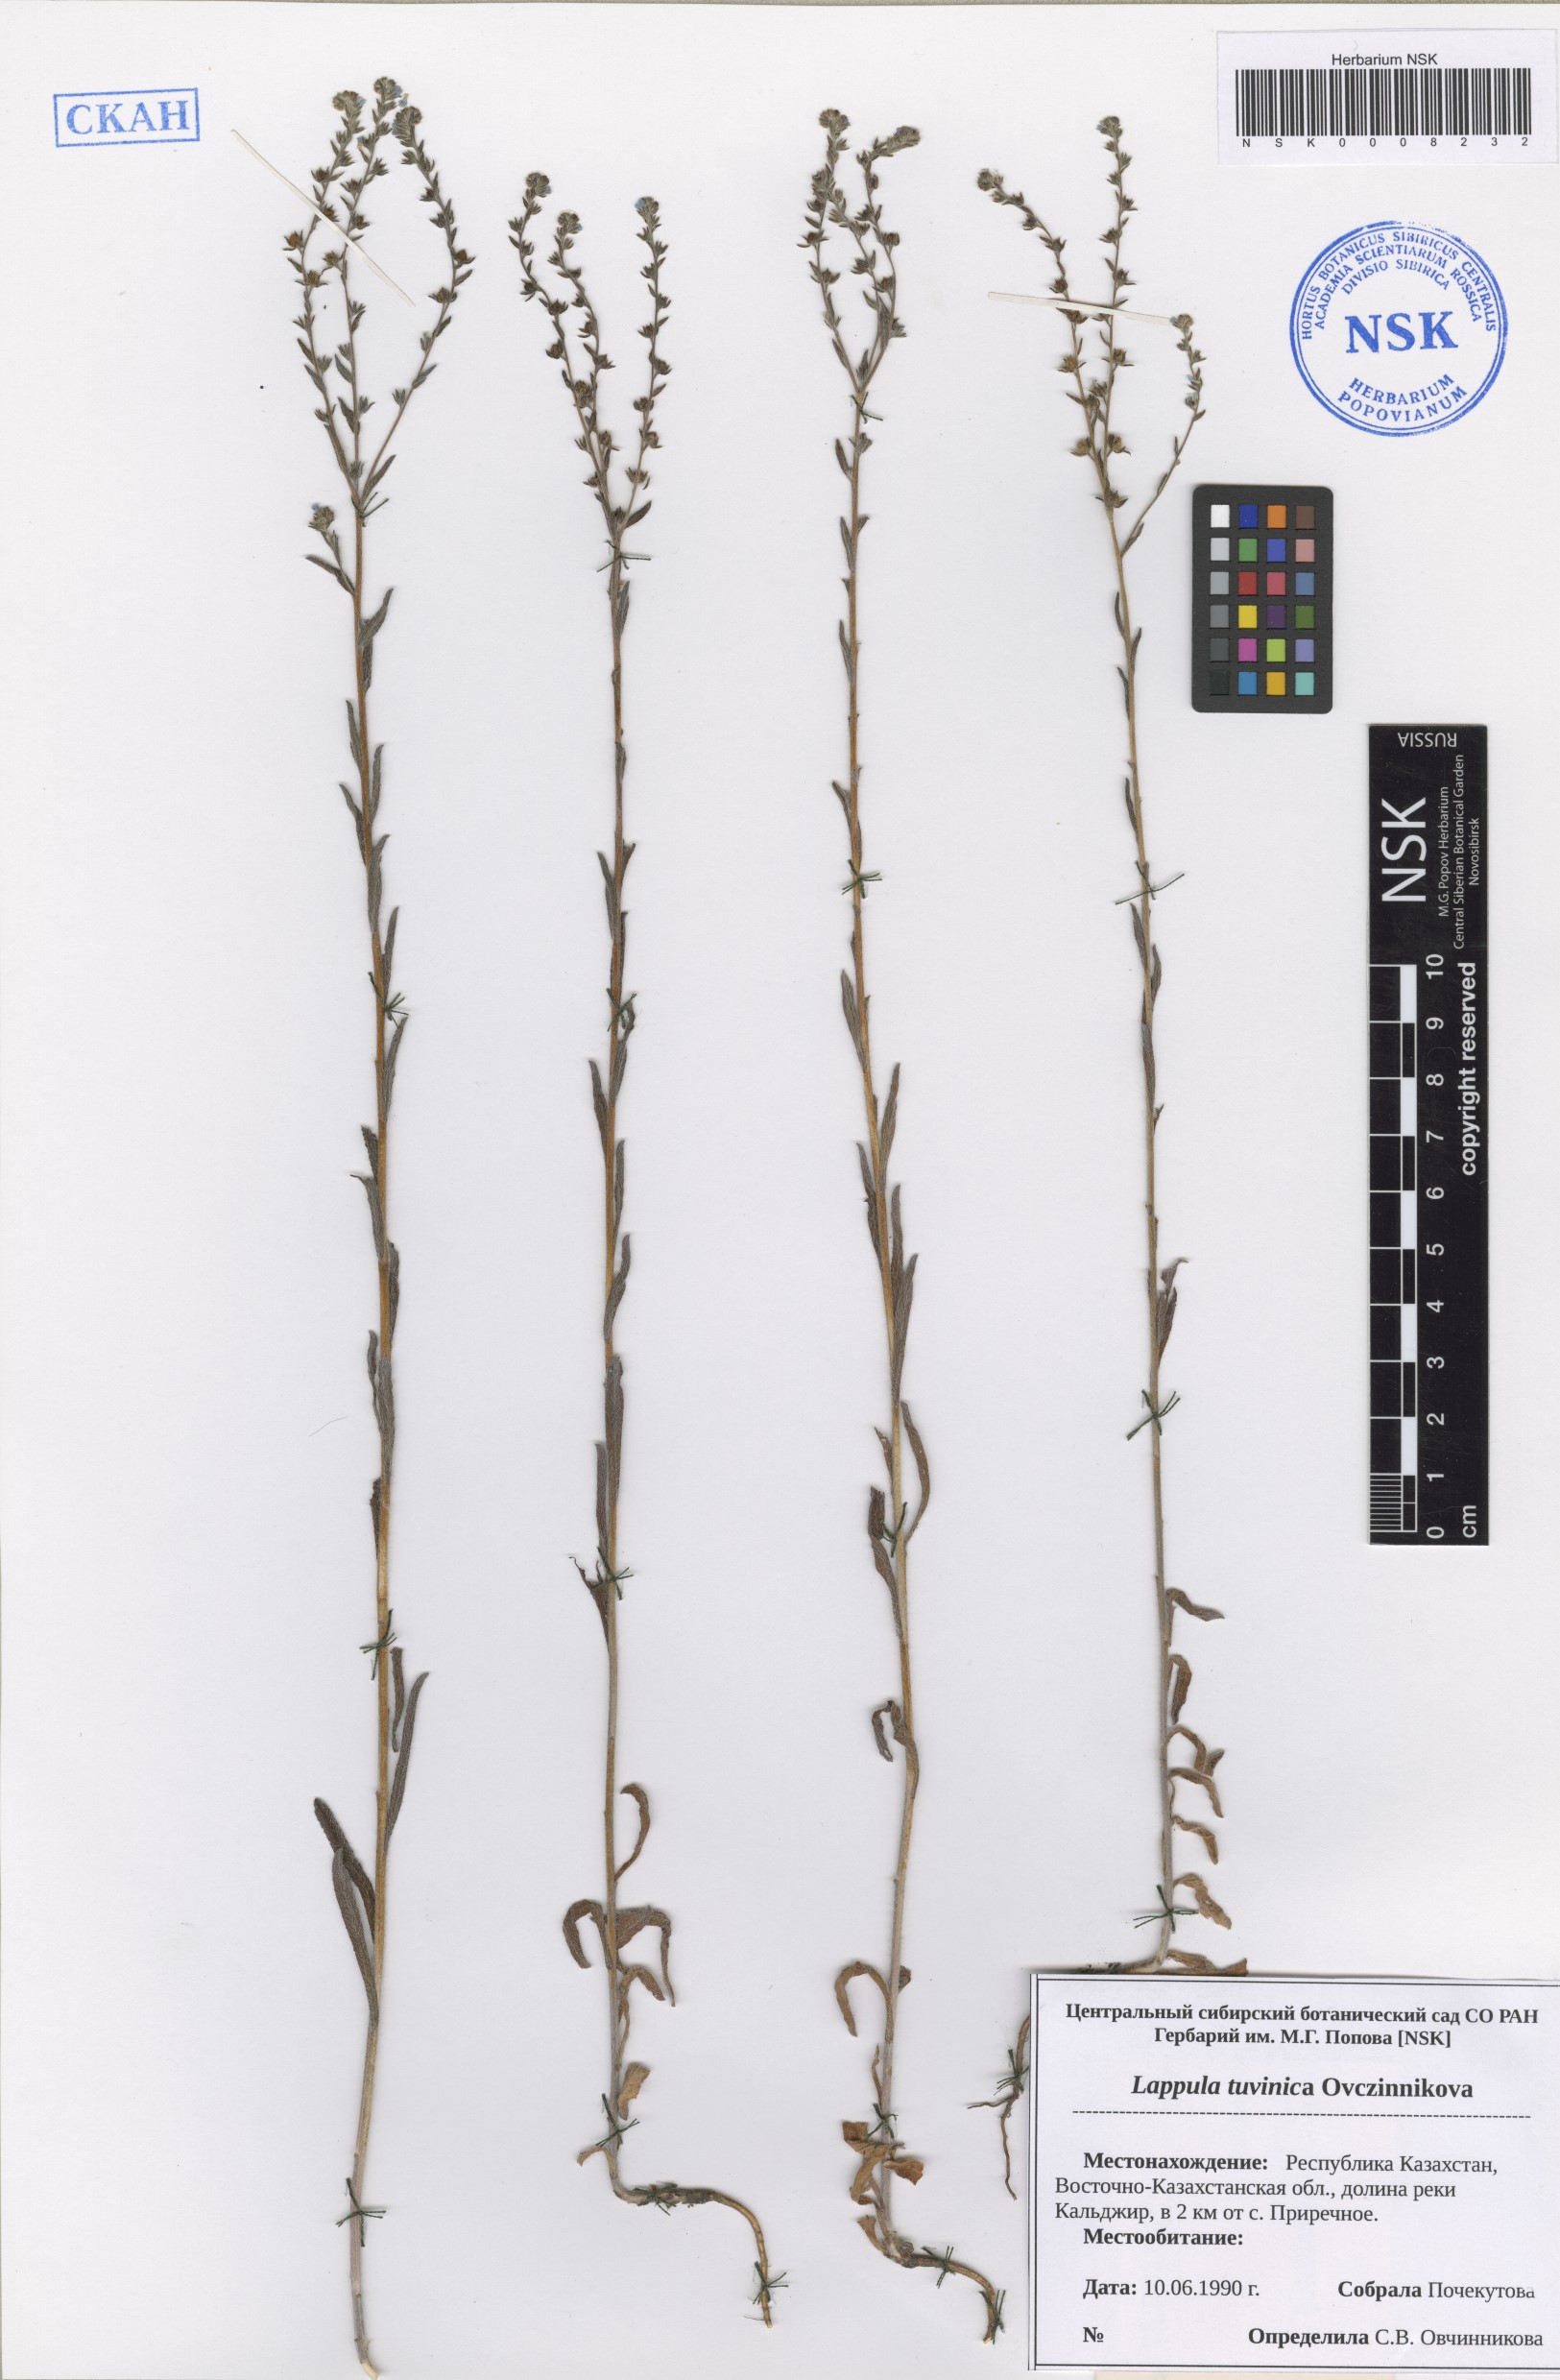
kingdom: Plantae
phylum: Tracheophyta
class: Magnoliopsida
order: Boraginales
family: Boraginaceae
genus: Lappula
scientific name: Lappula tuvinica
